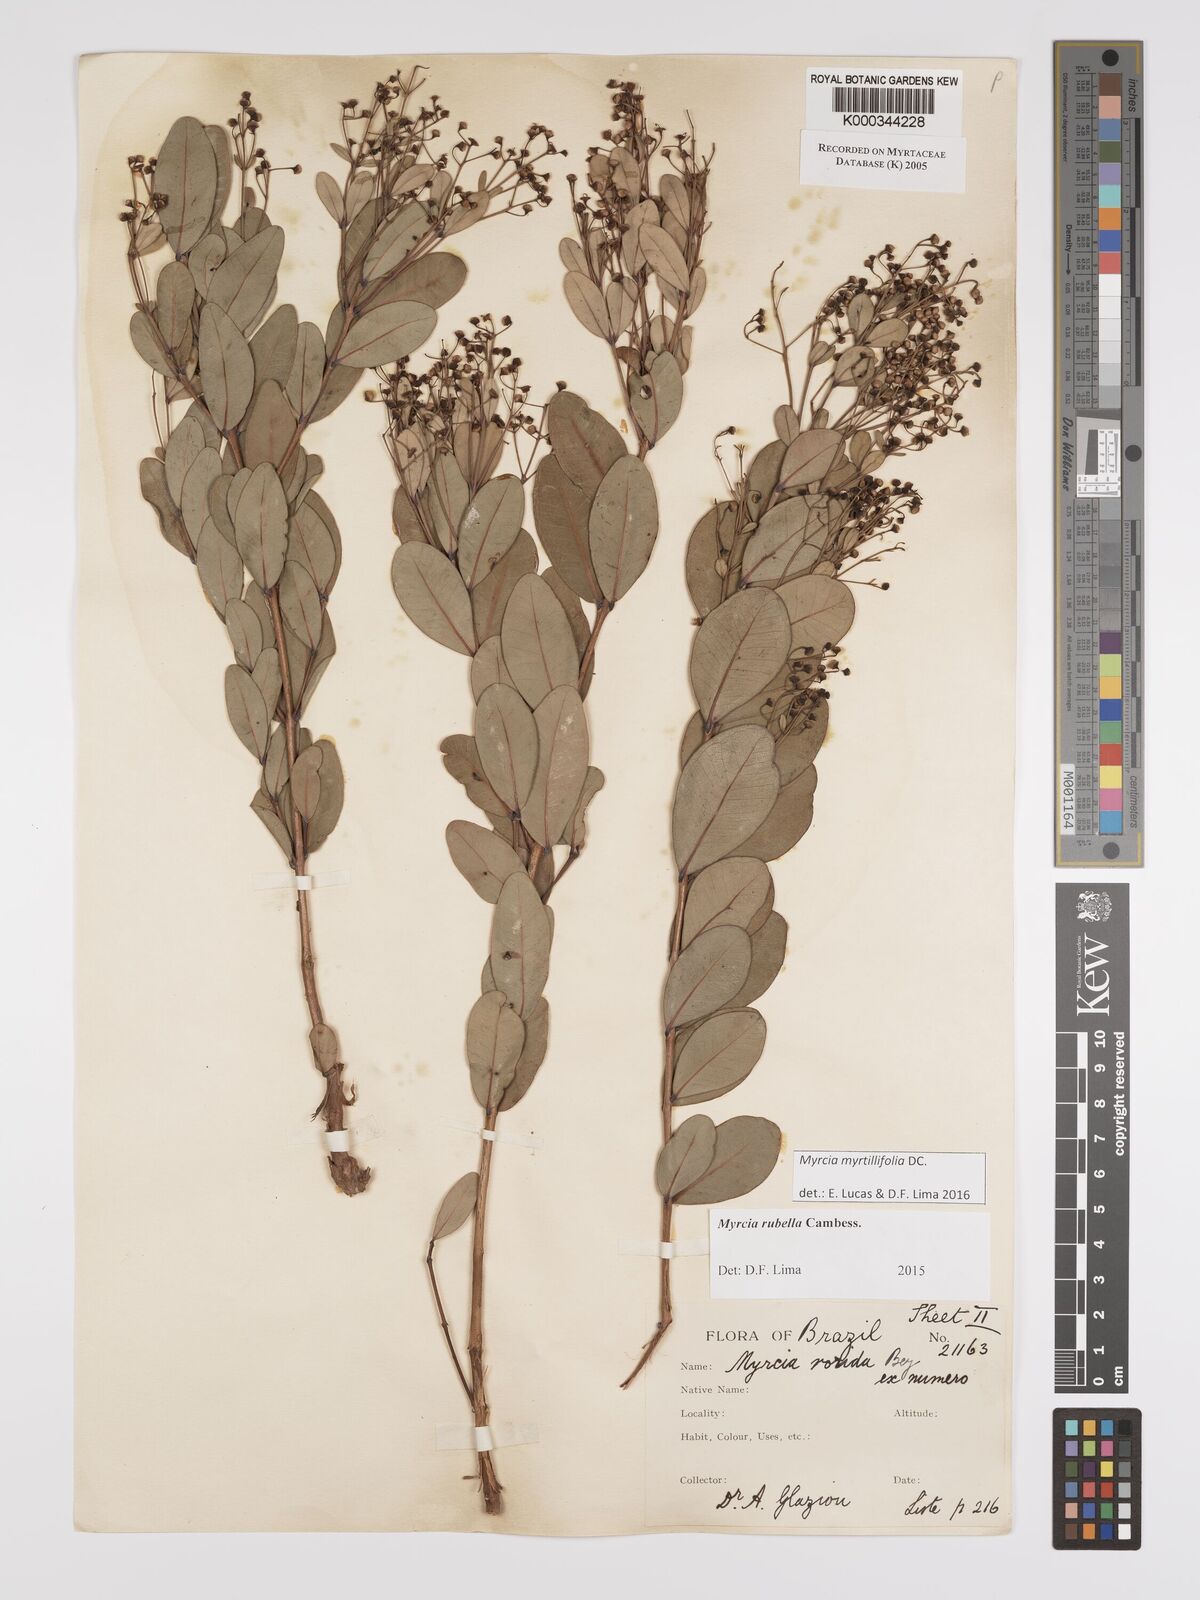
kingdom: Plantae
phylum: Tracheophyta
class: Magnoliopsida
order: Myrtales
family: Myrtaceae
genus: Myrcia
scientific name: Myrcia guianensis
